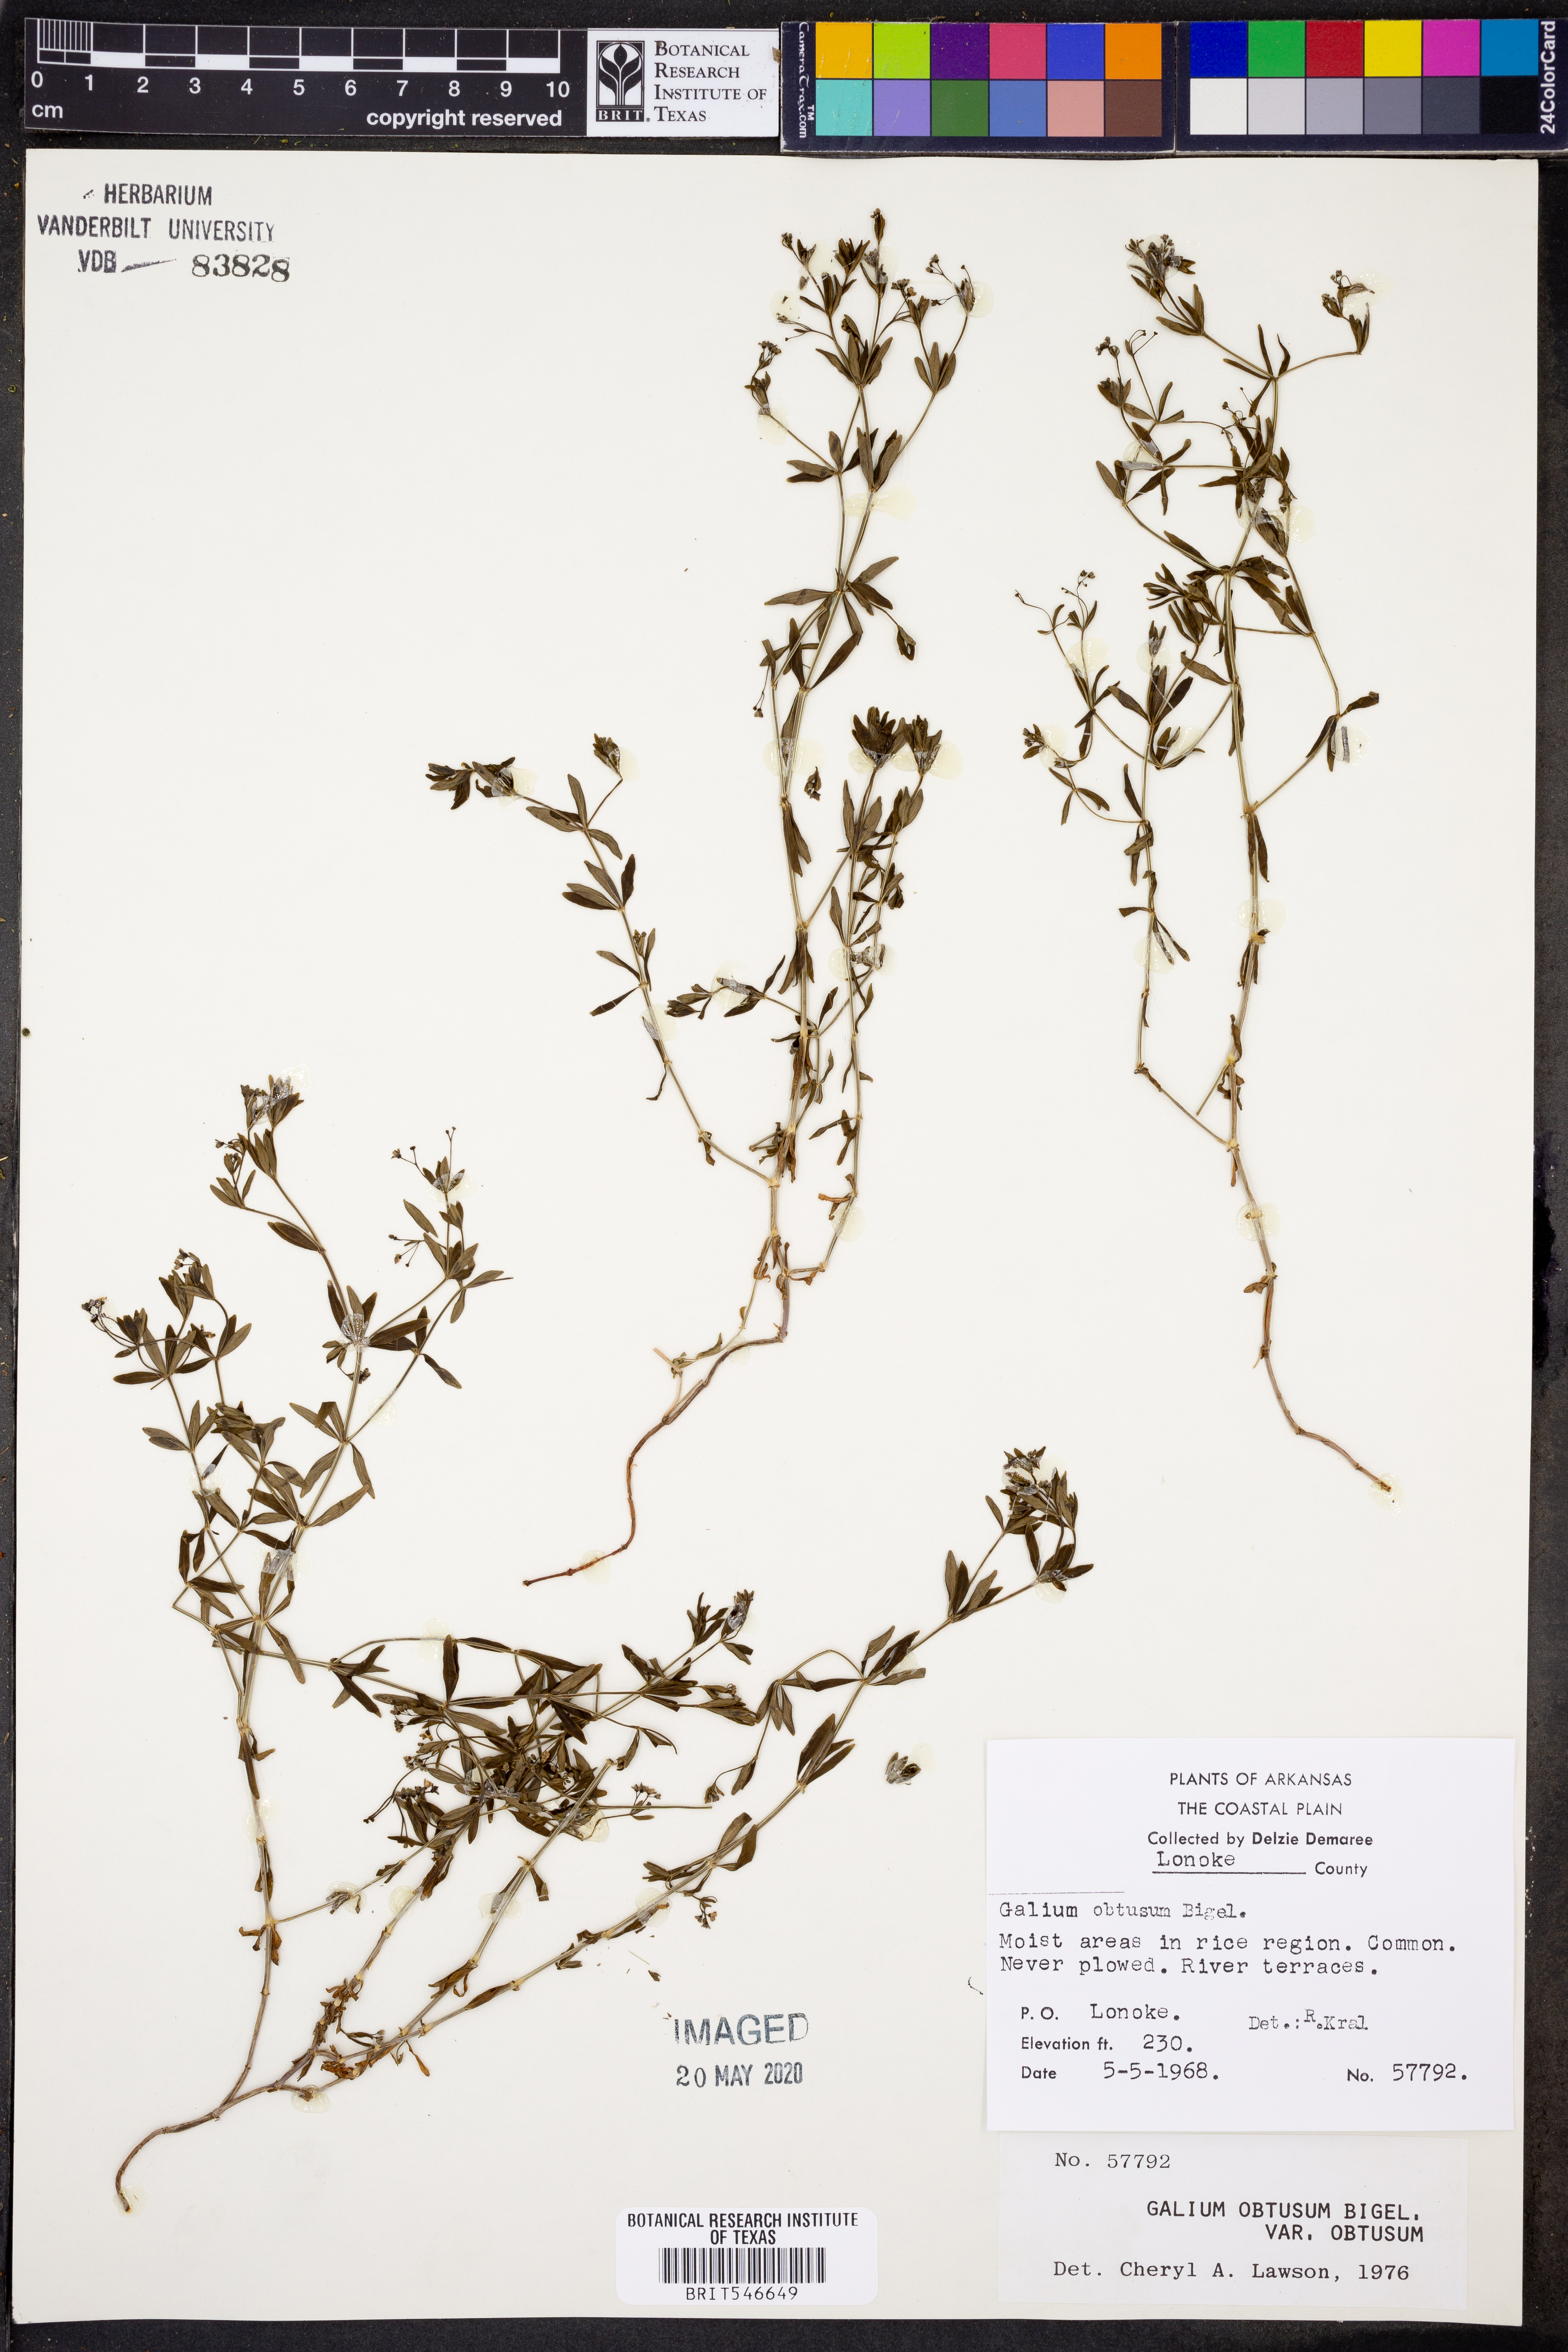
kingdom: Plantae
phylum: Tracheophyta
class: Magnoliopsida
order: Gentianales
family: Rubiaceae
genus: Galium
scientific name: Galium obtusum
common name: Blunt-leaved bedstraw
